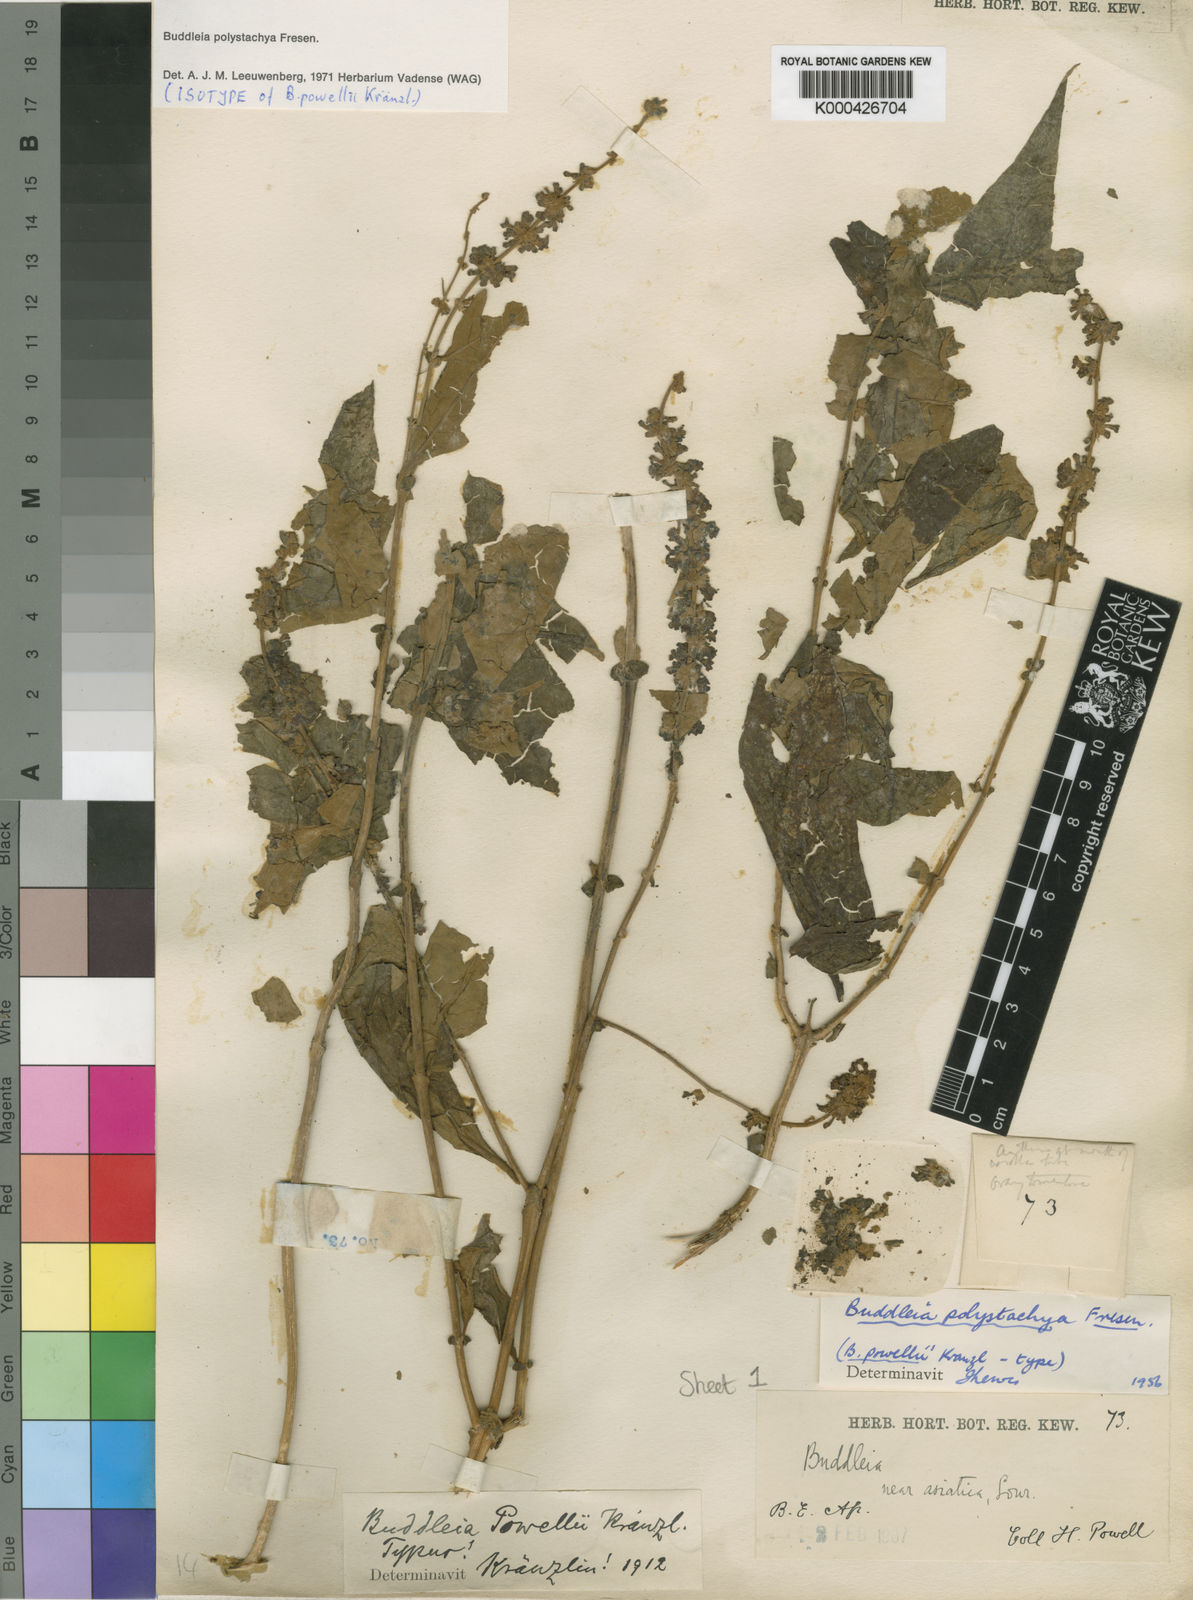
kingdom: Plantae
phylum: Tracheophyta
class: Magnoliopsida
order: Lamiales
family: Scrophulariaceae
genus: Buddleja
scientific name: Buddleja polystachya
